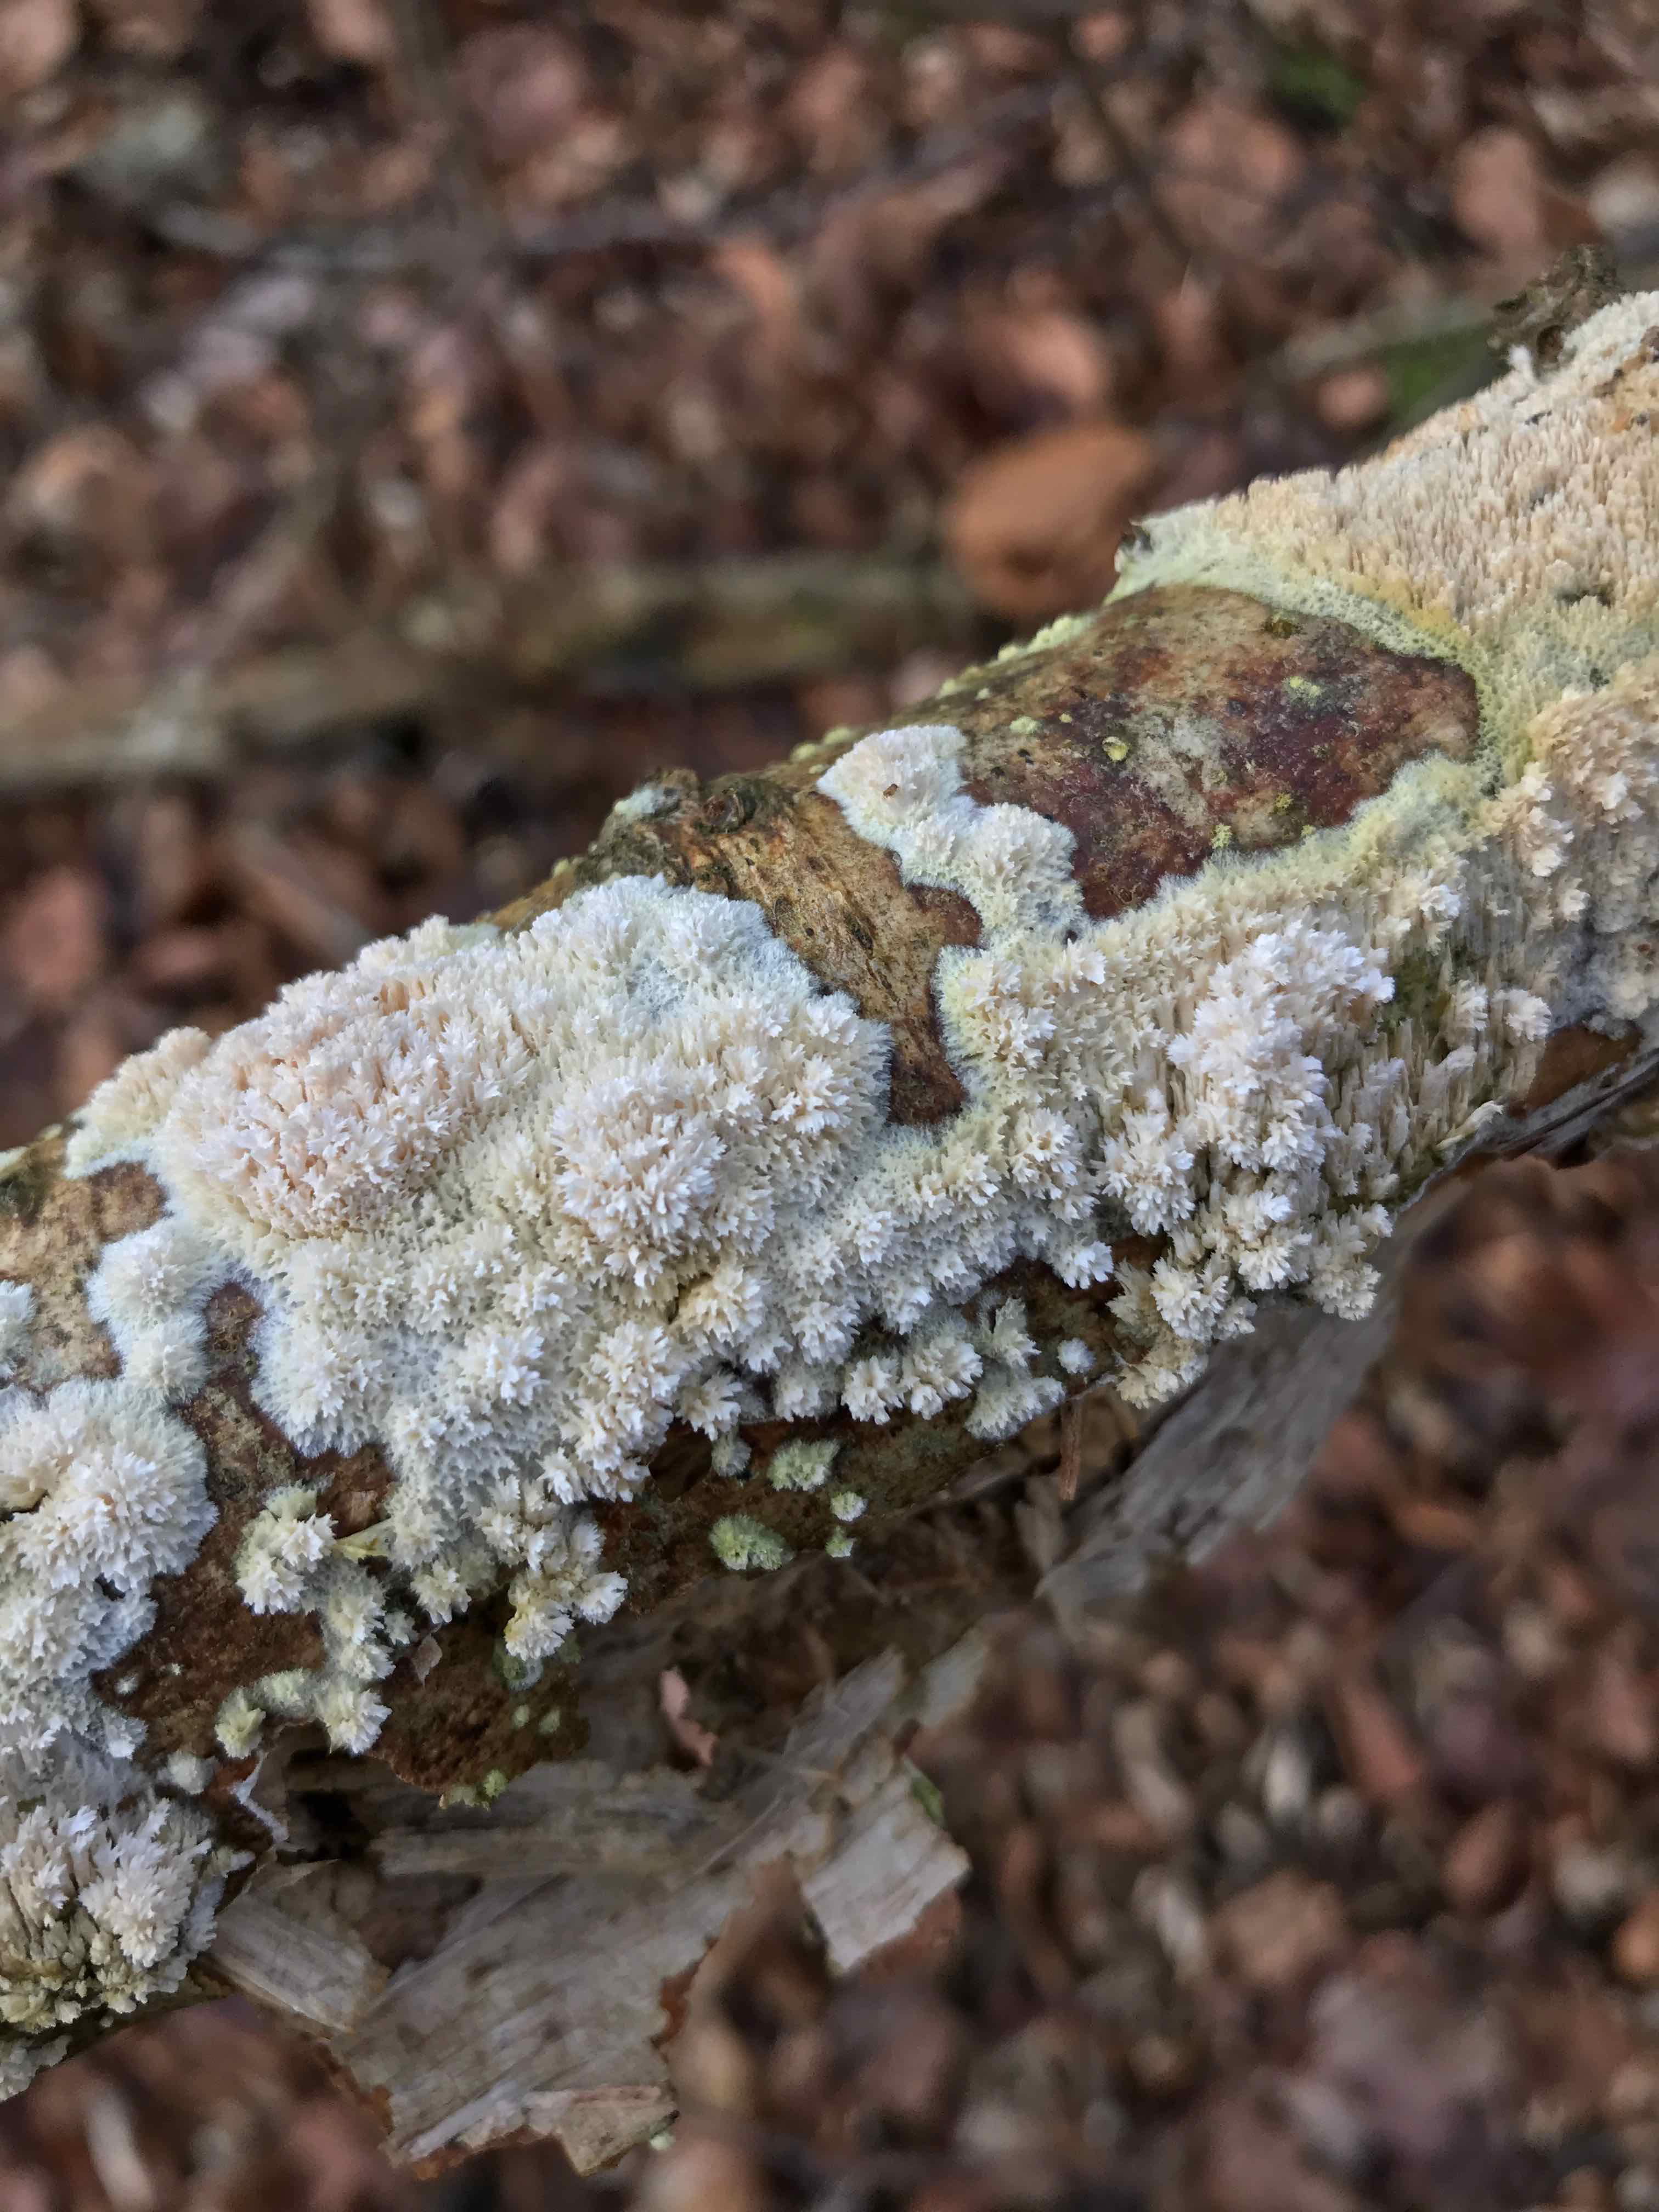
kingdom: Fungi
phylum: Basidiomycota
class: Agaricomycetes
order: Hymenochaetales
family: Schizoporaceae
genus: Schizopora
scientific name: Schizopora paradoxa
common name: hvid tandsvamp
